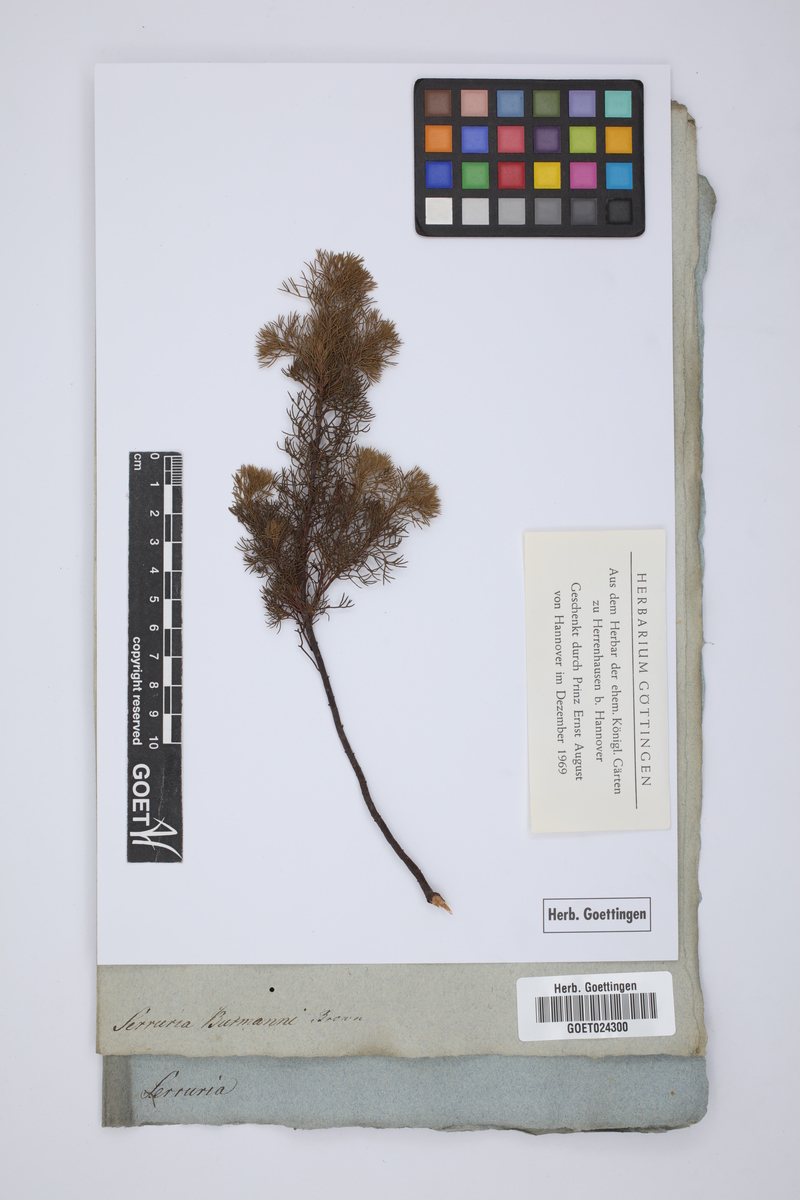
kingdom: Plantae
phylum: Tracheophyta
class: Magnoliopsida
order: Proteales
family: Proteaceae
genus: Serruria
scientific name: Serruria fasciflora
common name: Common pin spiderhead
